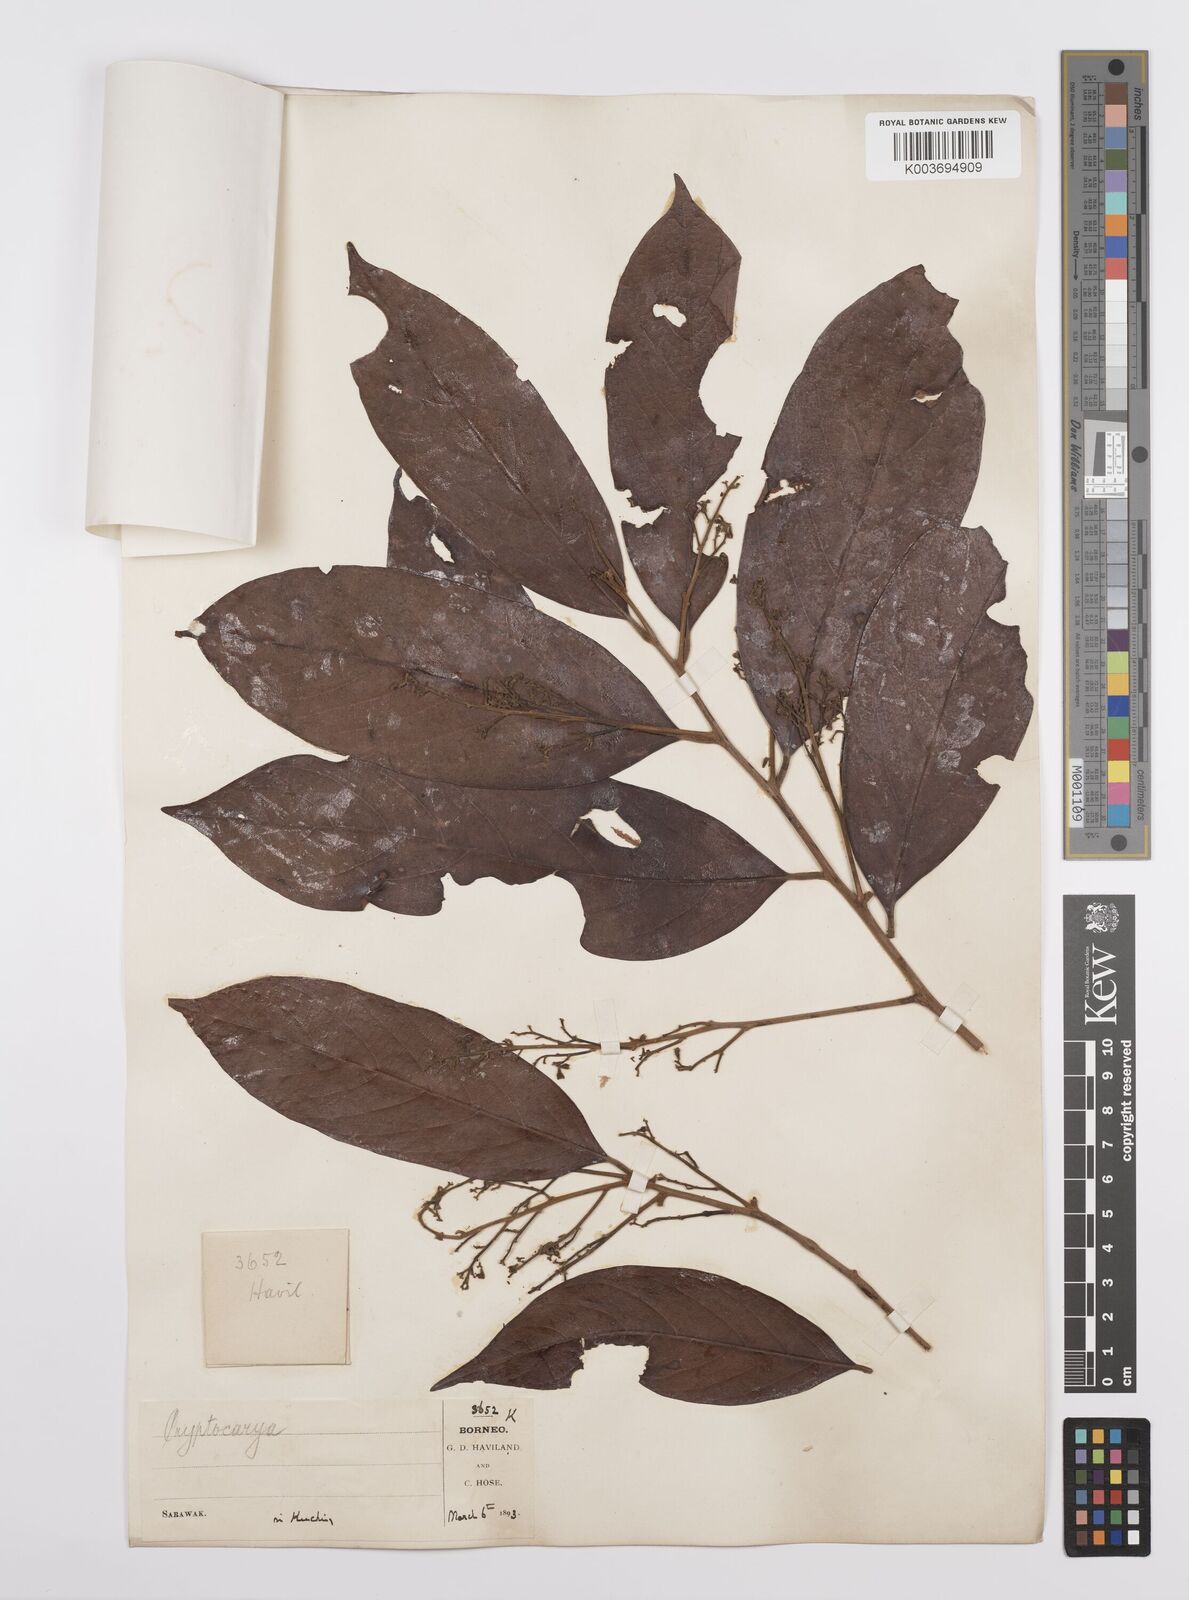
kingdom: Plantae
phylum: Tracheophyta
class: Magnoliopsida
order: Laurales
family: Lauraceae
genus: Cryptocarya
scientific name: Cryptocarya
